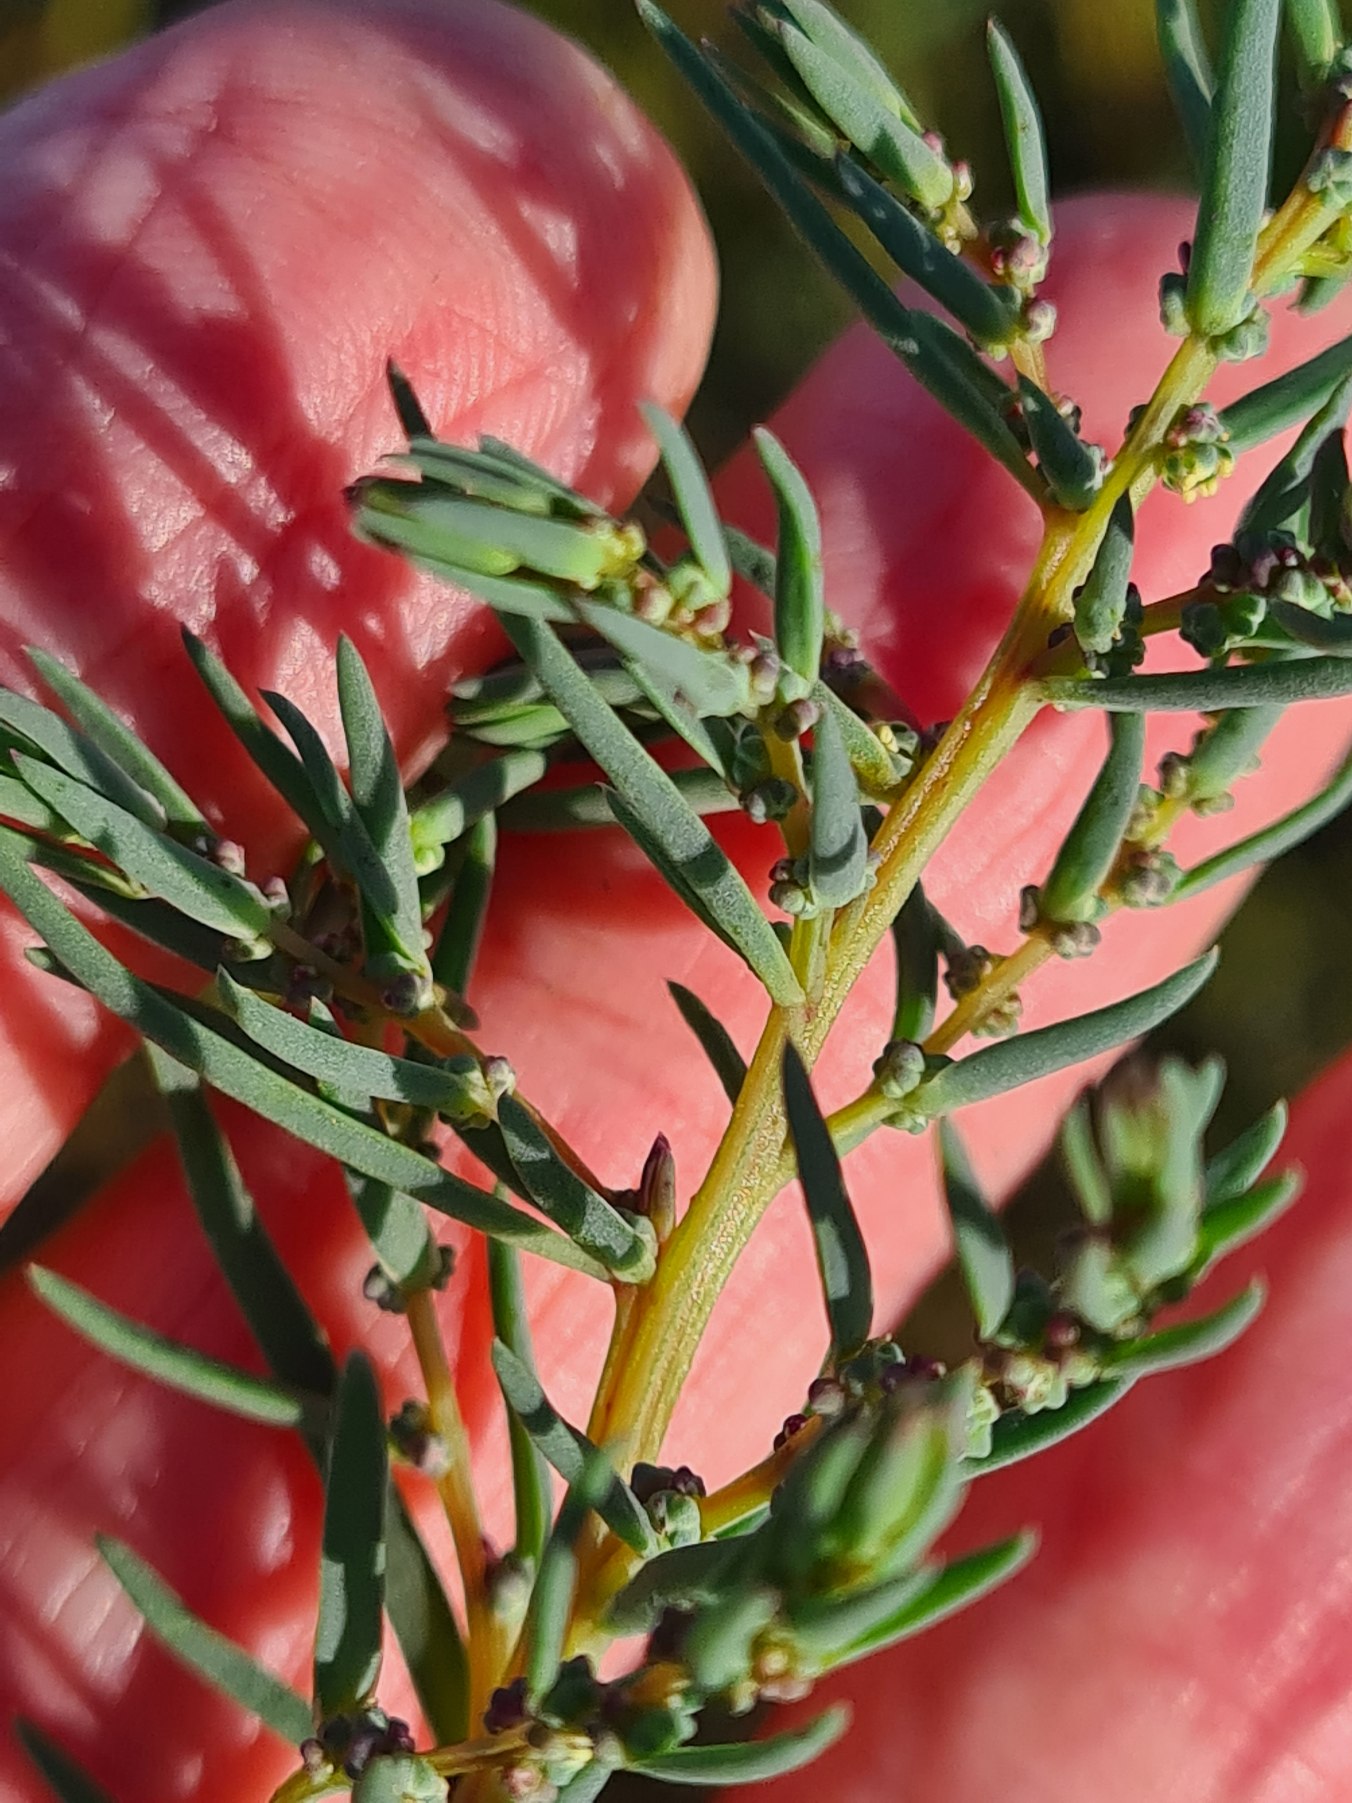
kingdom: Plantae
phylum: Tracheophyta
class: Magnoliopsida
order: Caryophyllales
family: Amaranthaceae
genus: Suaeda
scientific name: Suaeda maritima
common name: Strandgåsefod
